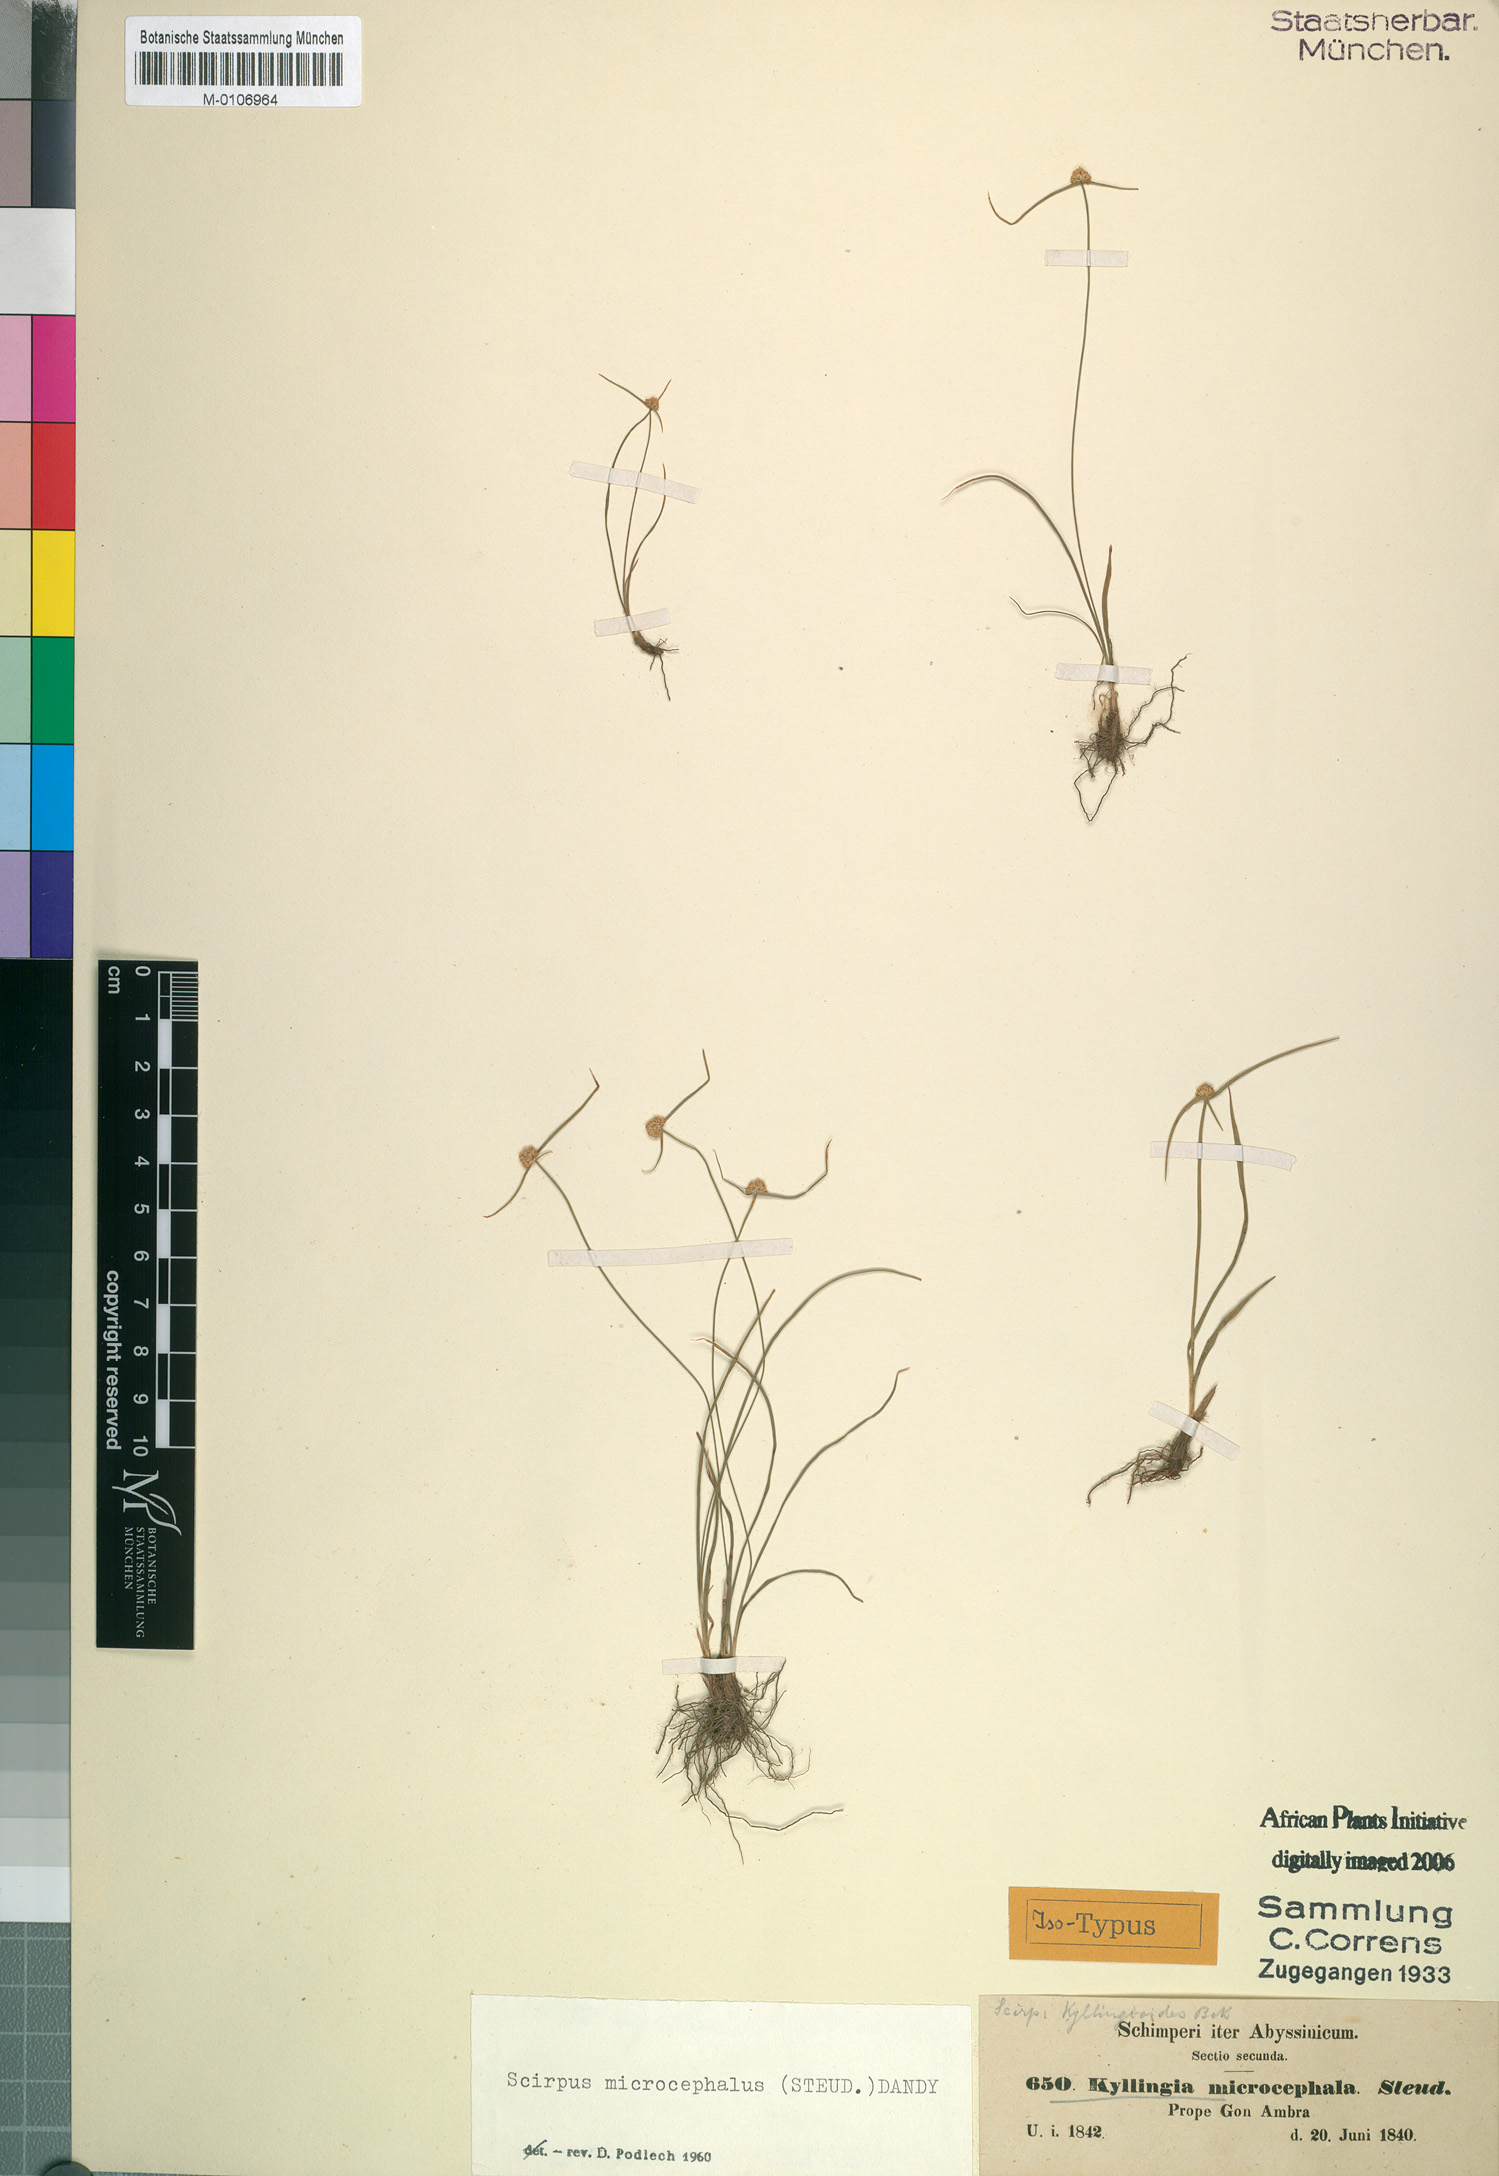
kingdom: Plantae
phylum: Tracheophyta
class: Liliopsida
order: Poales
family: Cyperaceae
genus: Cyperus
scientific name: Cyperus kyllingiella
